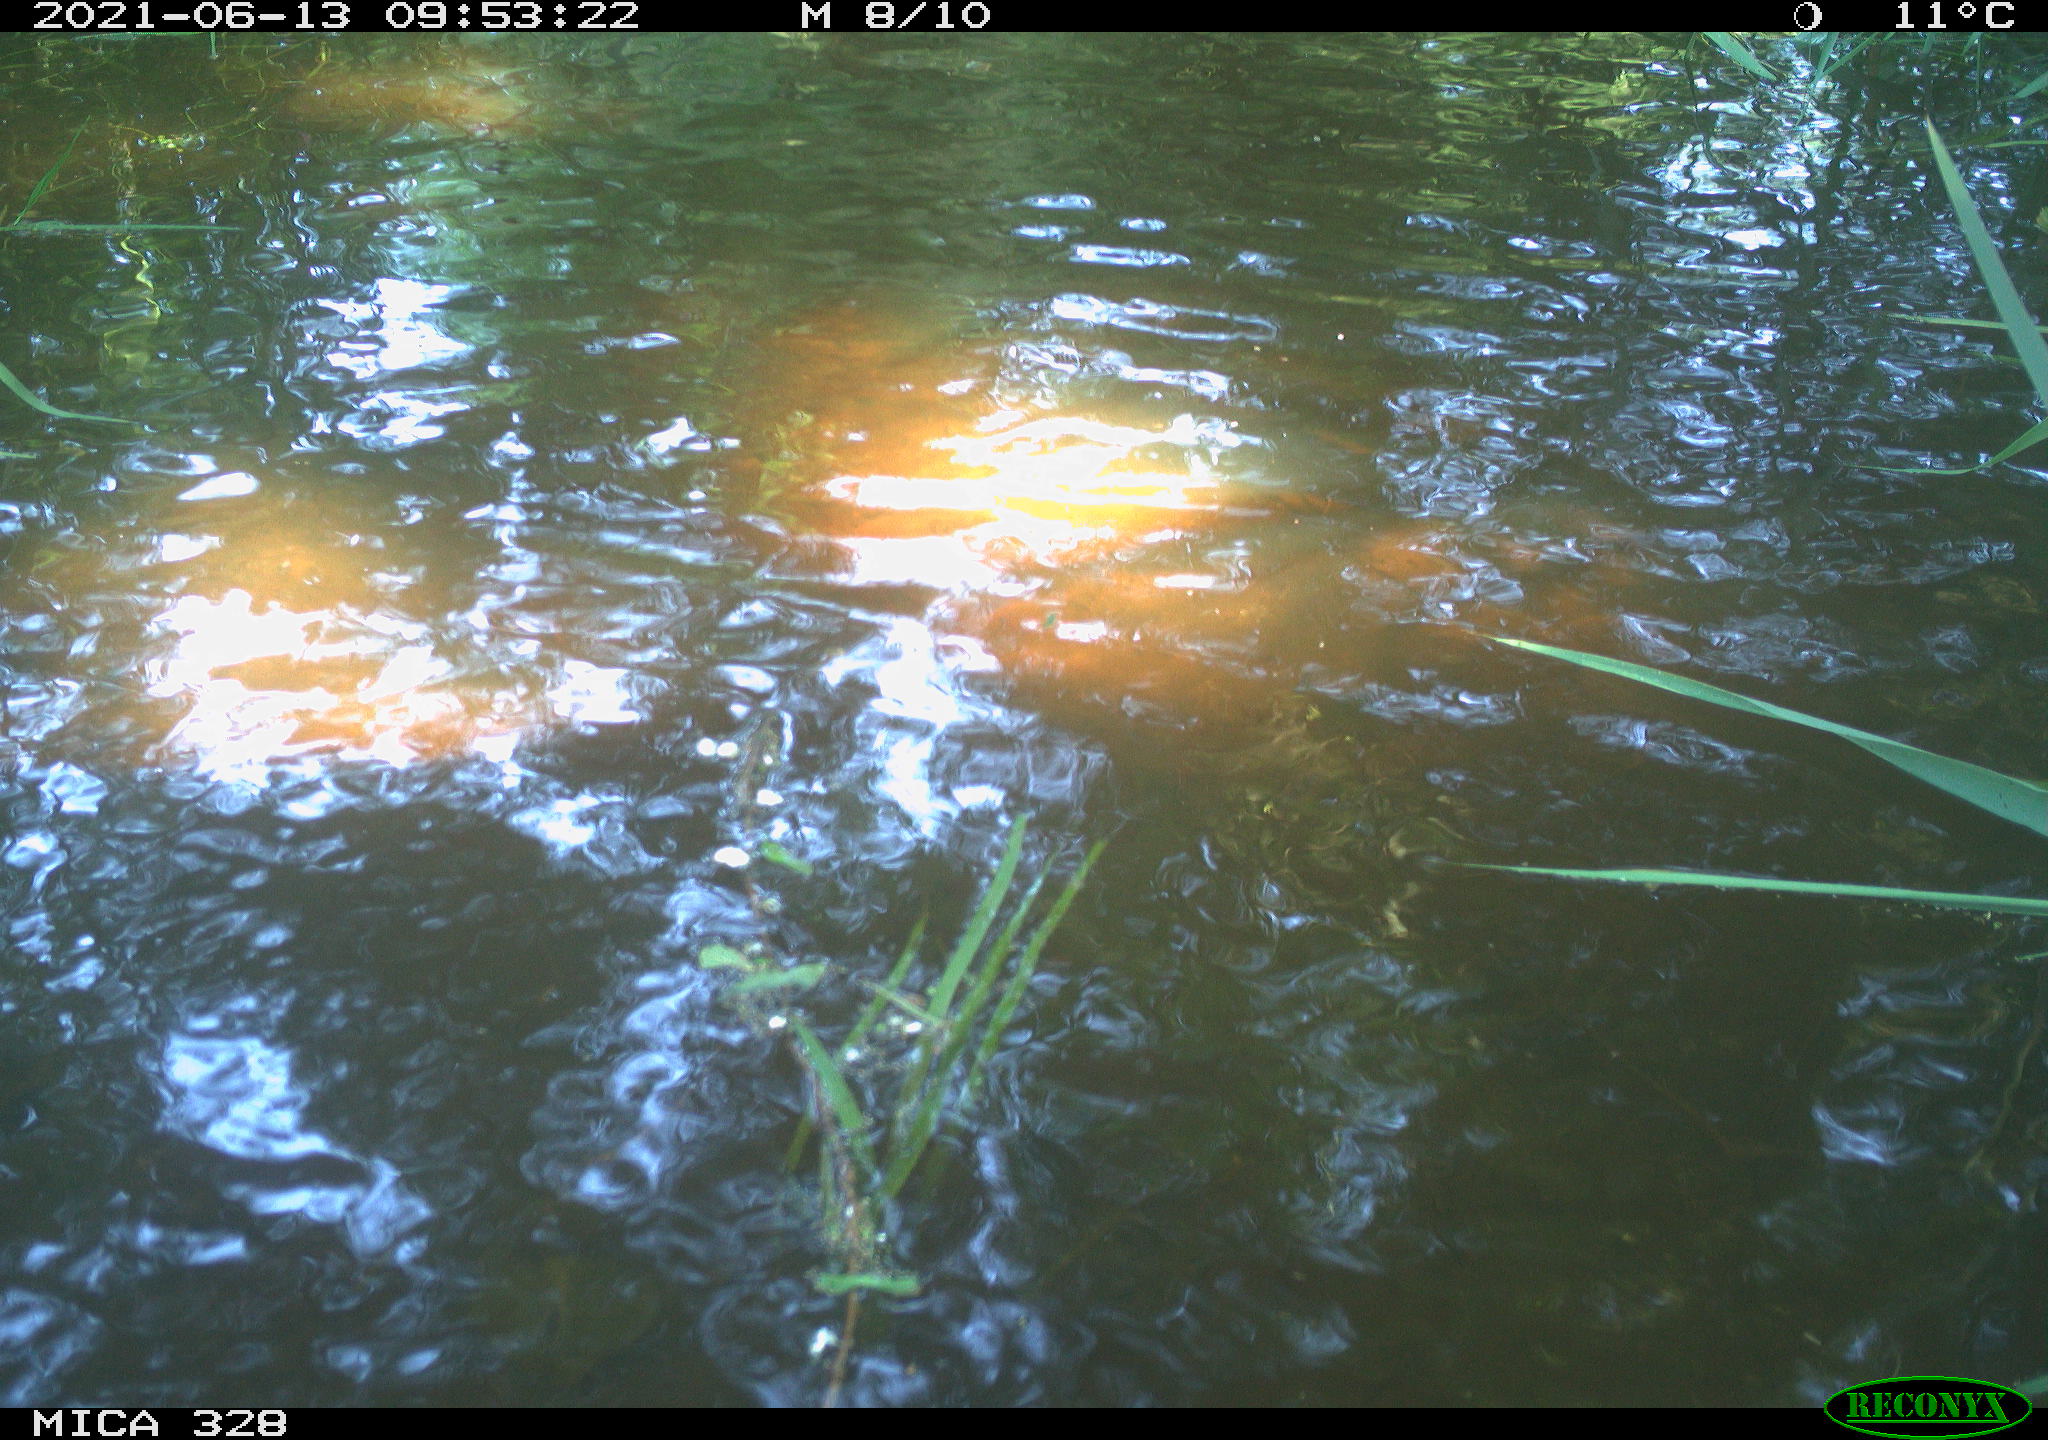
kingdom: Animalia
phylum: Chordata
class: Aves
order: Anseriformes
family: Anatidae
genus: Aix
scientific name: Aix galericulata
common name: Mandarin duck
